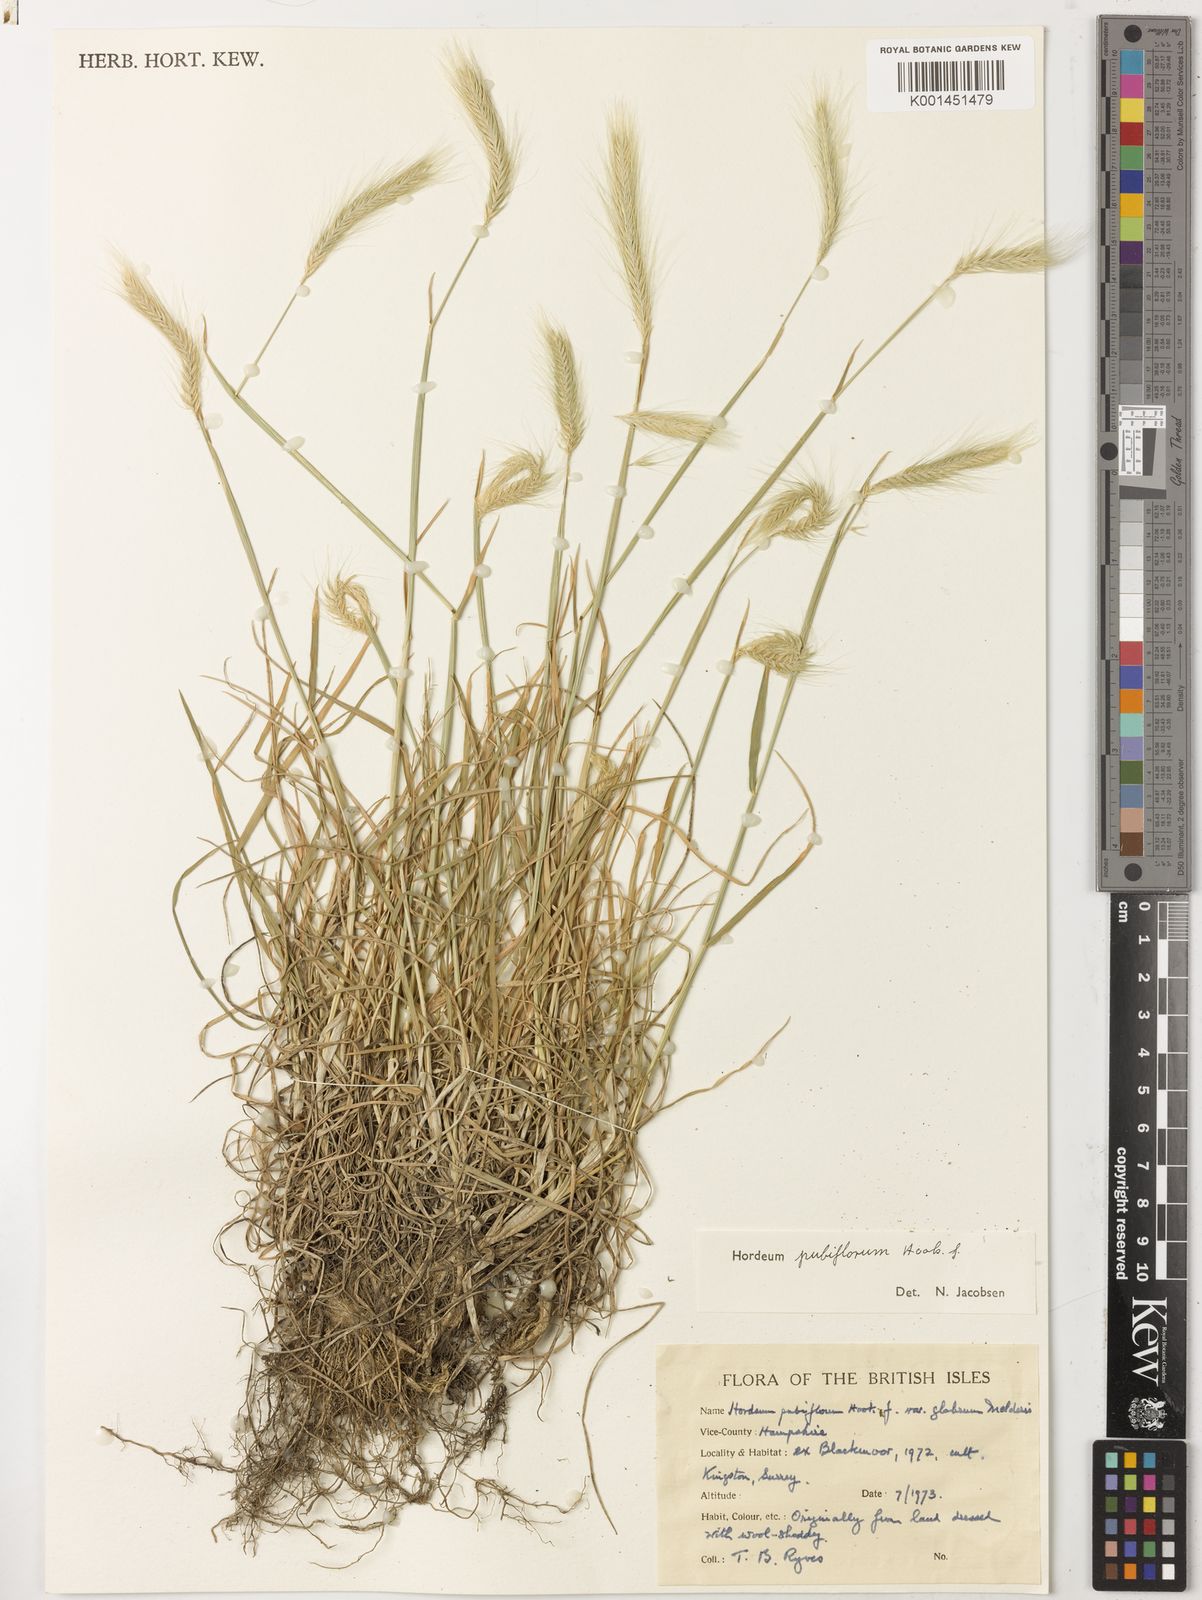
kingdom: Plantae
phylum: Tracheophyta
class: Liliopsida
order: Poales
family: Poaceae
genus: Hordeum
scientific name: Hordeum pubiflorum
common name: Antarctic barley
